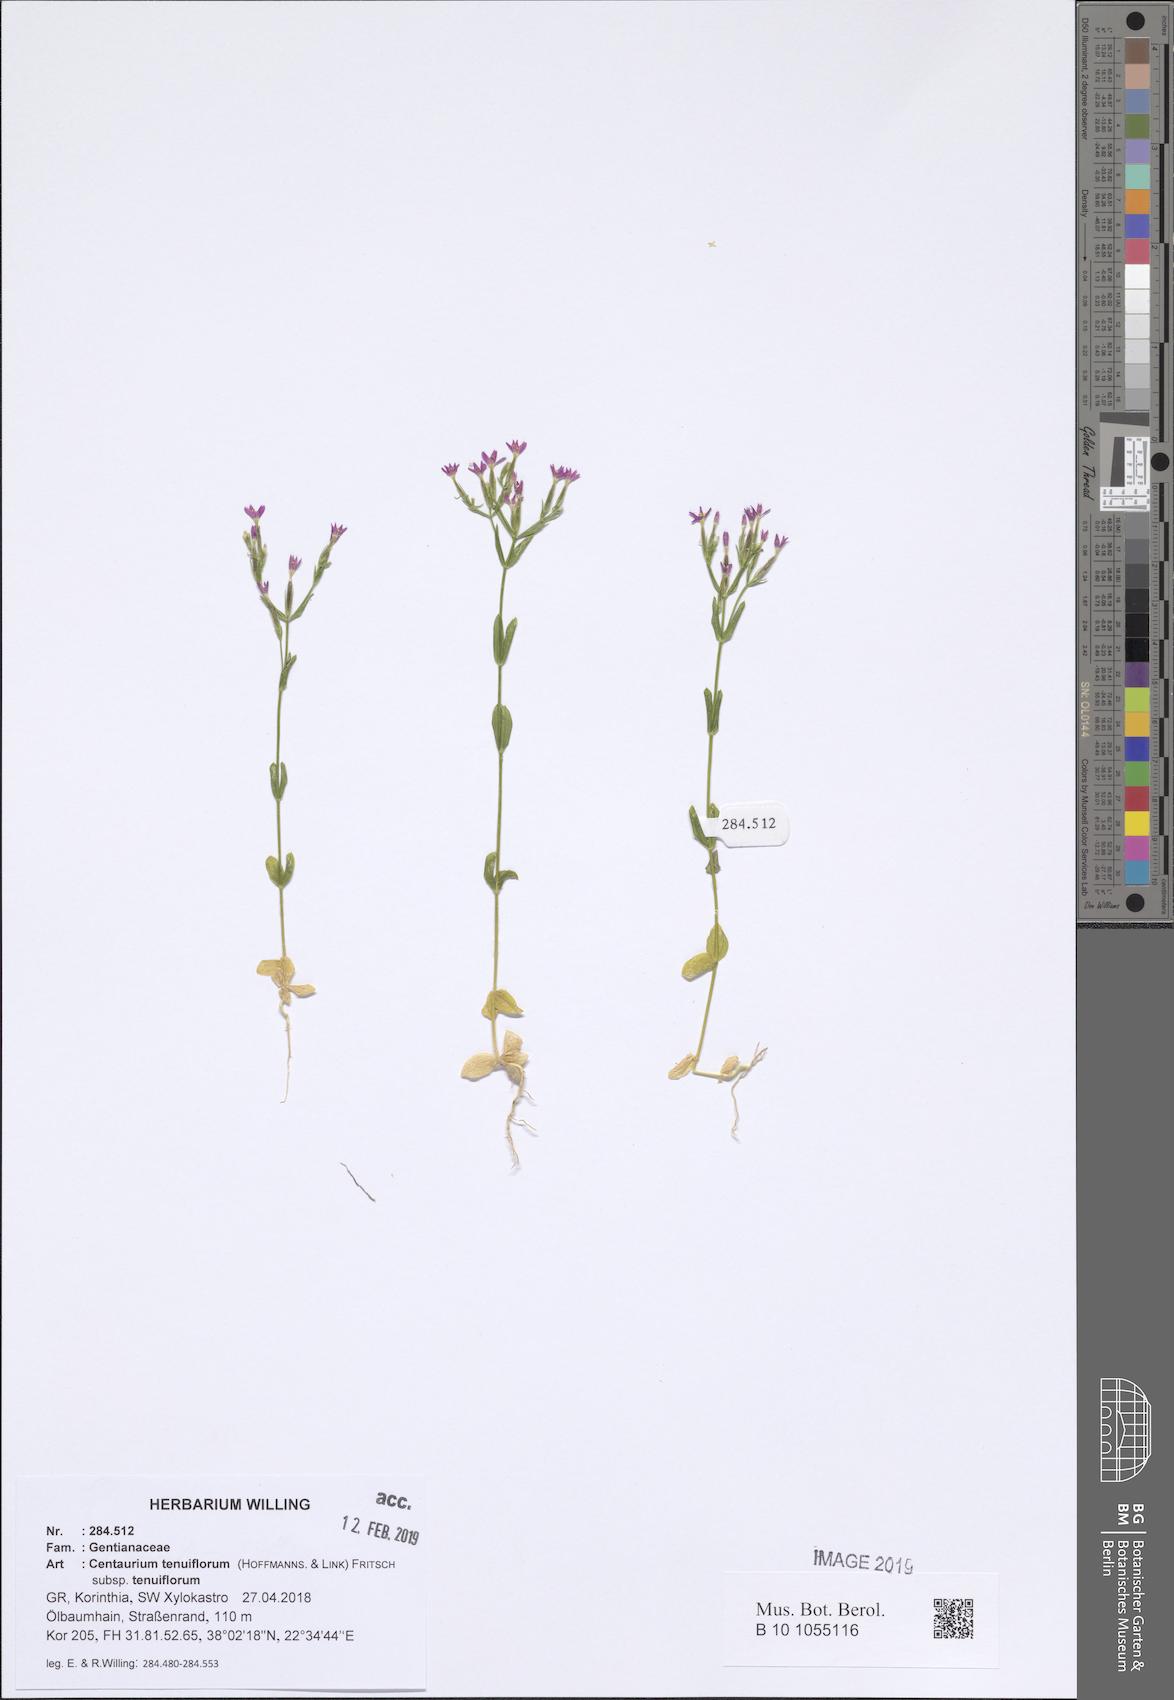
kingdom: Plantae
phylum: Tracheophyta
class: Magnoliopsida
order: Gentianales
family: Gentianaceae
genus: Centaurium
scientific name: Centaurium tenuiflorum
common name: Slender centaury
